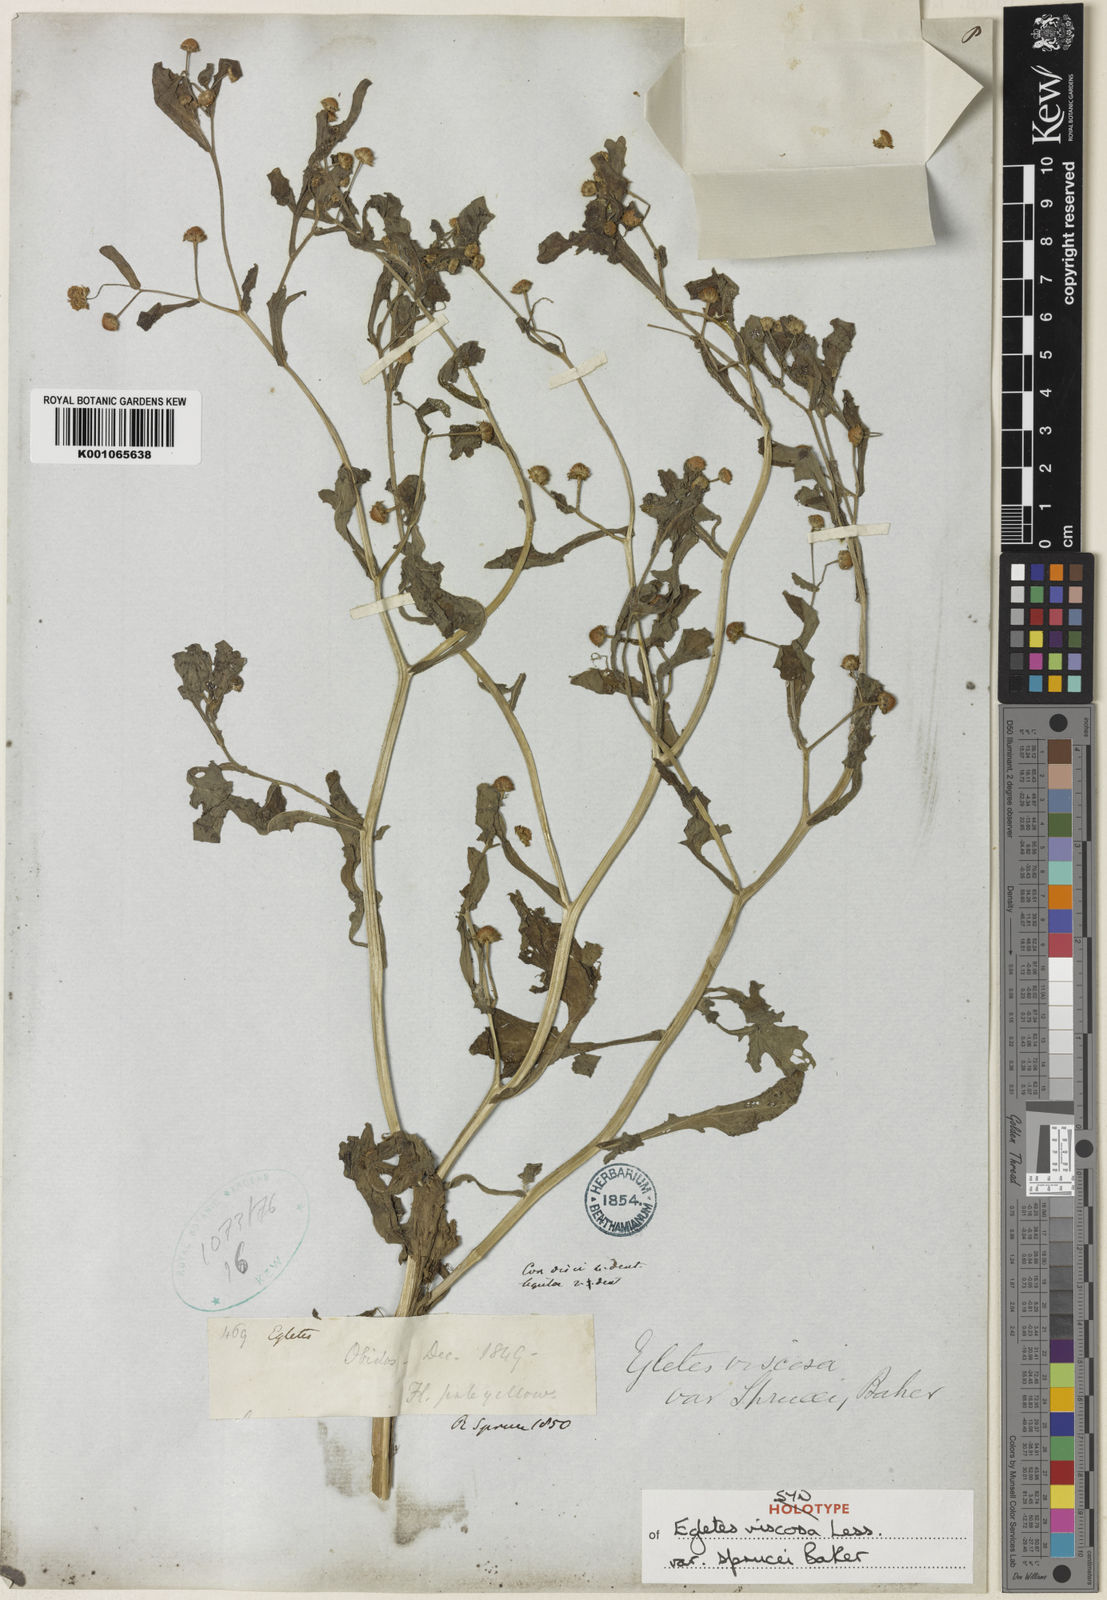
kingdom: Plantae
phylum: Tracheophyta
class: Magnoliopsida
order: Asterales
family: Asteraceae
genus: Egletes
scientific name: Egletes viscosa
